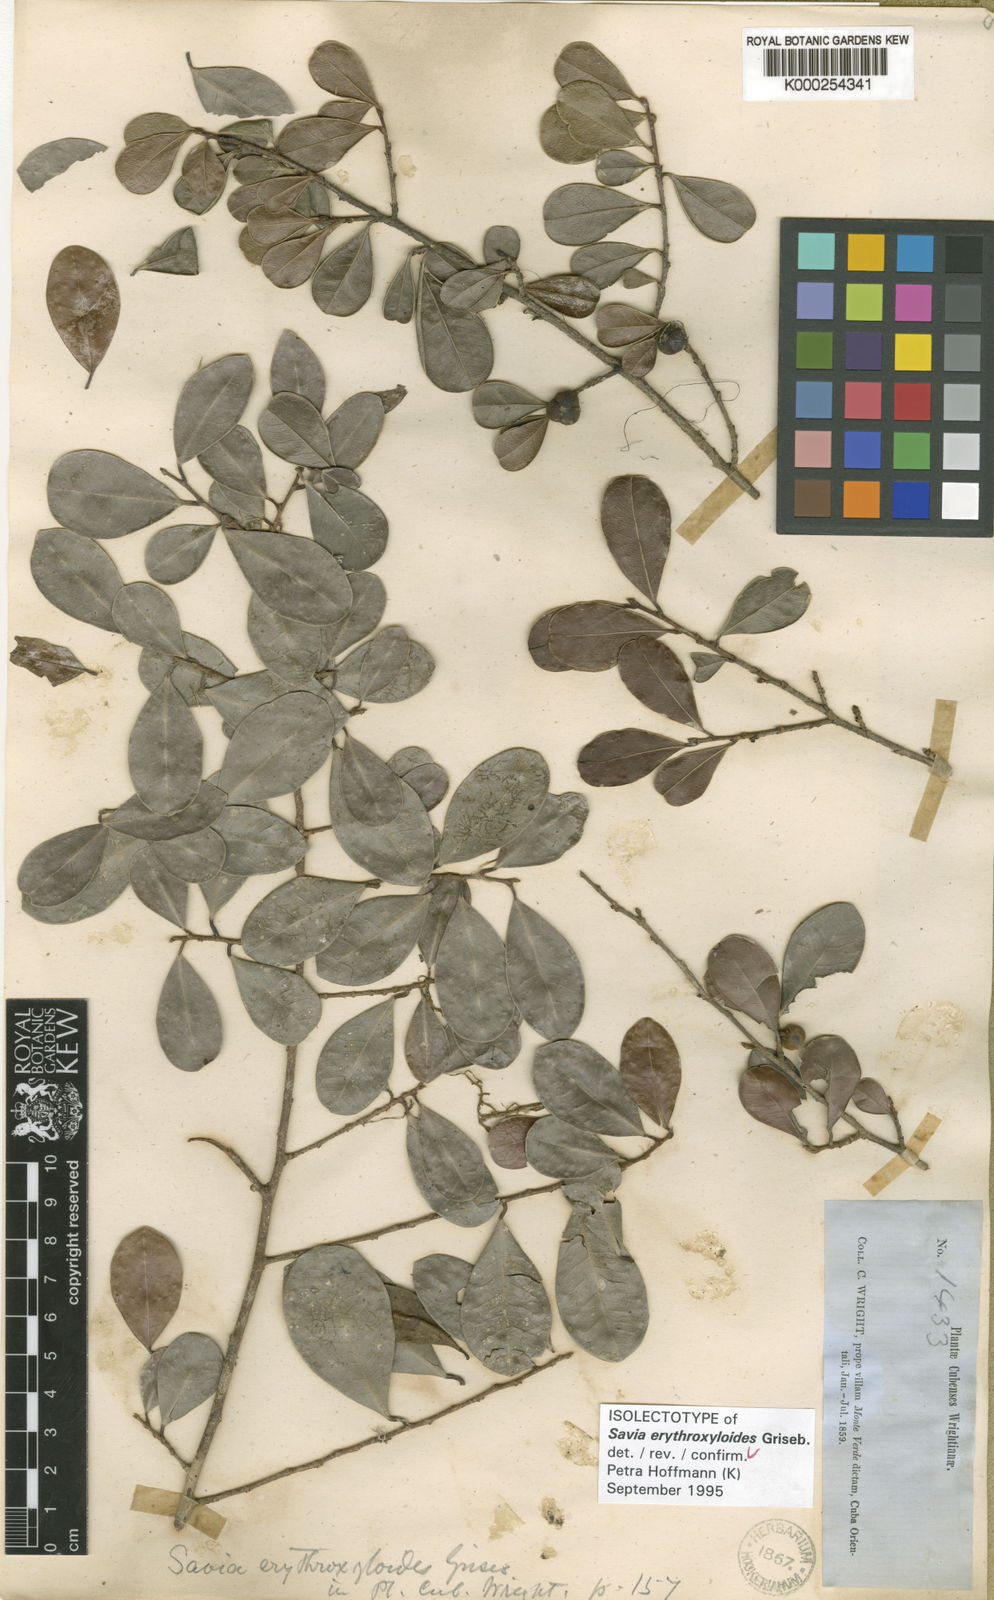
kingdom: Plantae
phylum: Tracheophyta
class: Magnoliopsida
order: Malpighiales
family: Phyllanthaceae
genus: Heterosavia
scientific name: Heterosavia erythroxyloides
